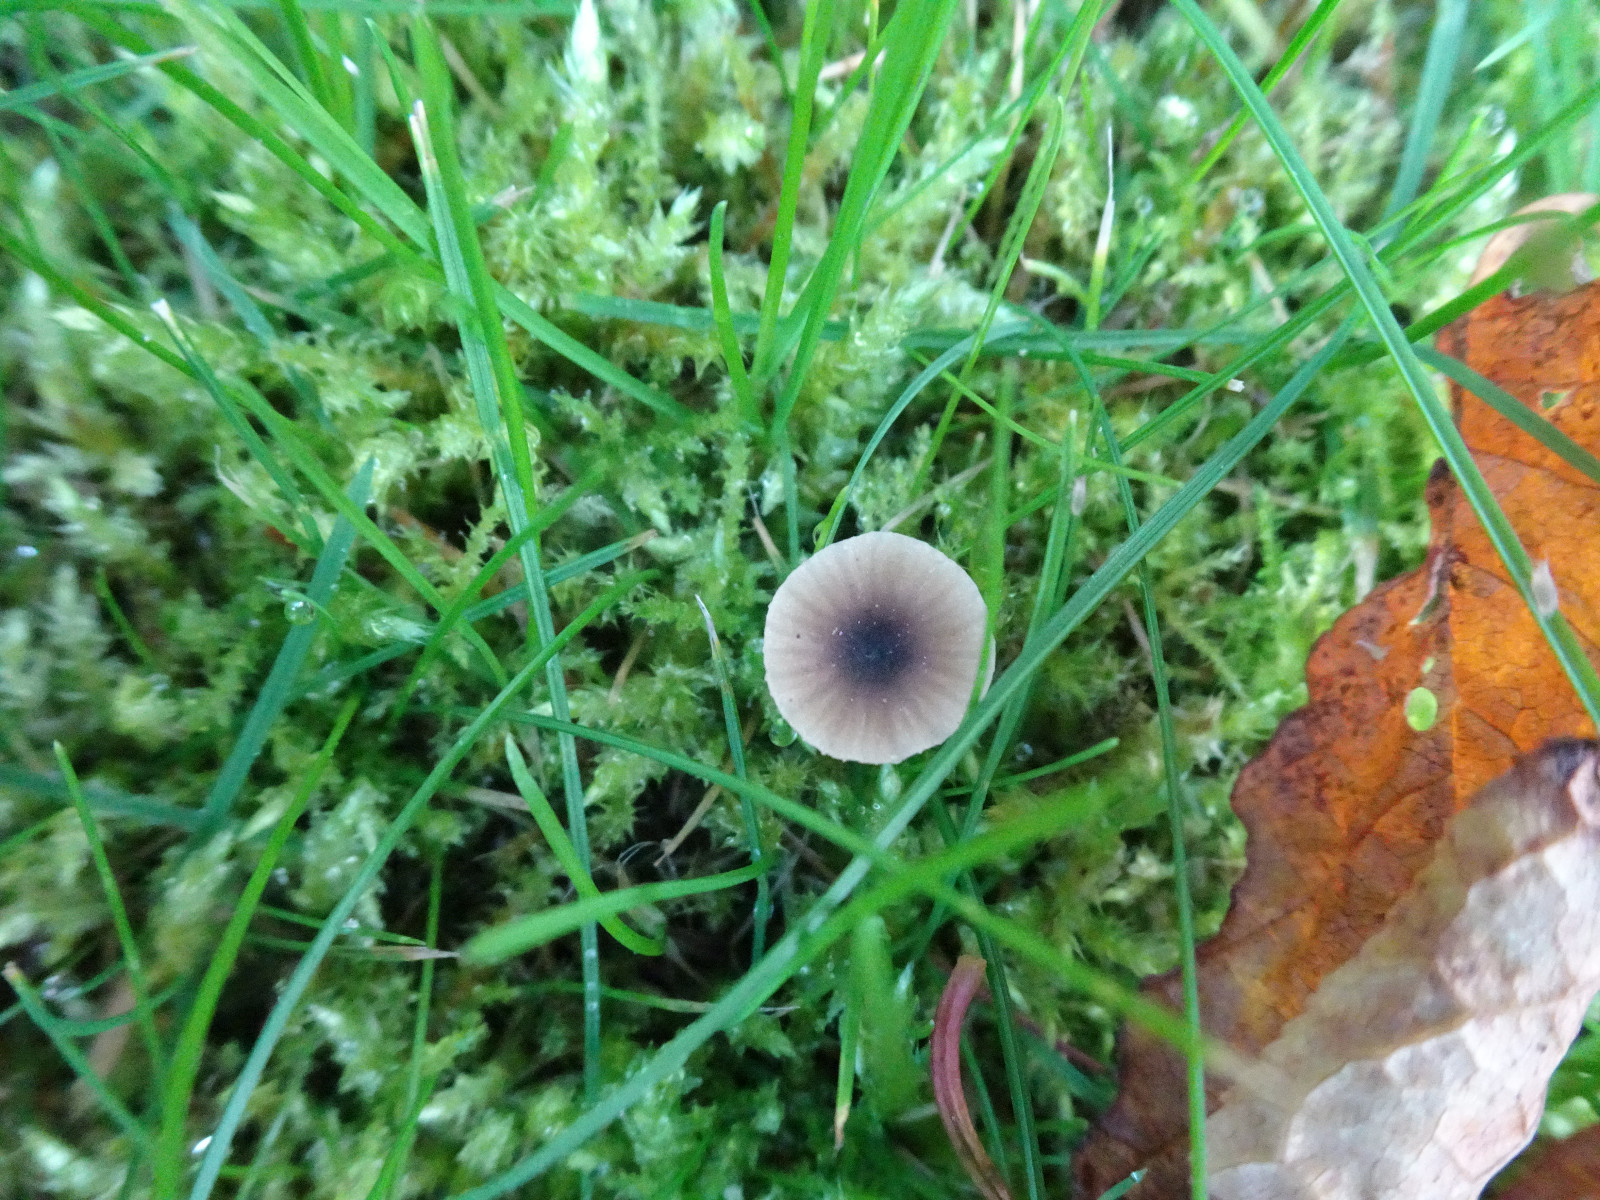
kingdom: Fungi
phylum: Basidiomycota
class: Agaricomycetes
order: Hymenochaetales
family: Rickenellaceae
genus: Rickenella
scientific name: Rickenella swartzii
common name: finstokket mosnavlehat
